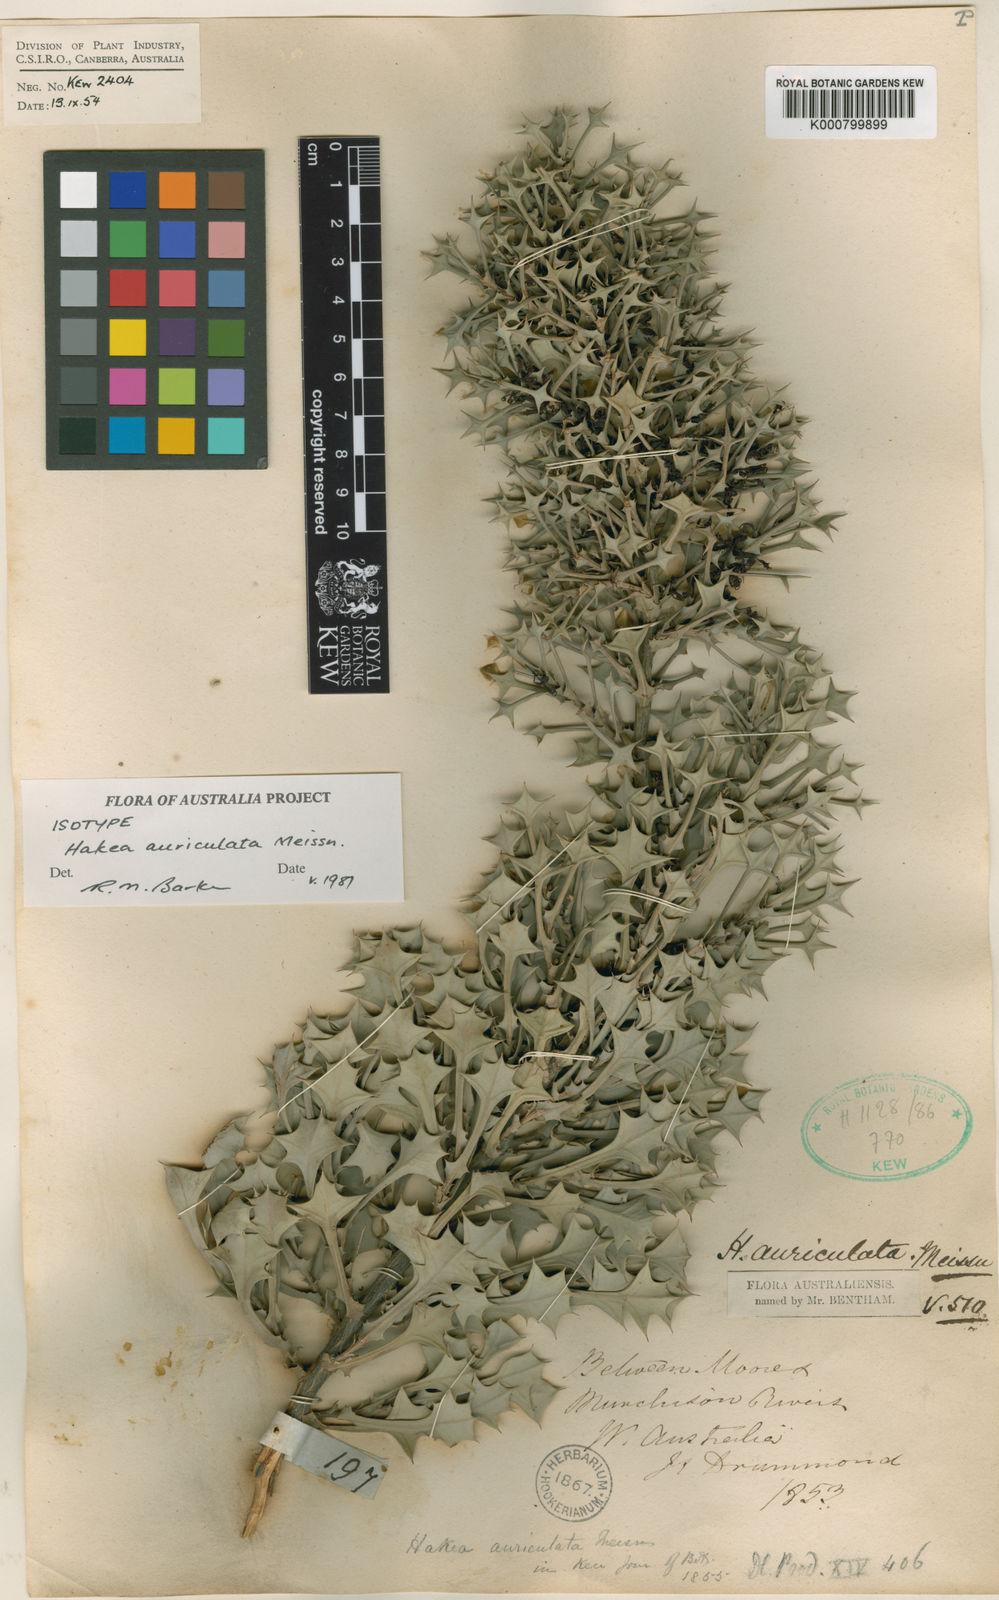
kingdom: Plantae
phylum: Tracheophyta
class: Magnoliopsida
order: Proteales
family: Proteaceae
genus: Hakea
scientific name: Hakea auriculata
